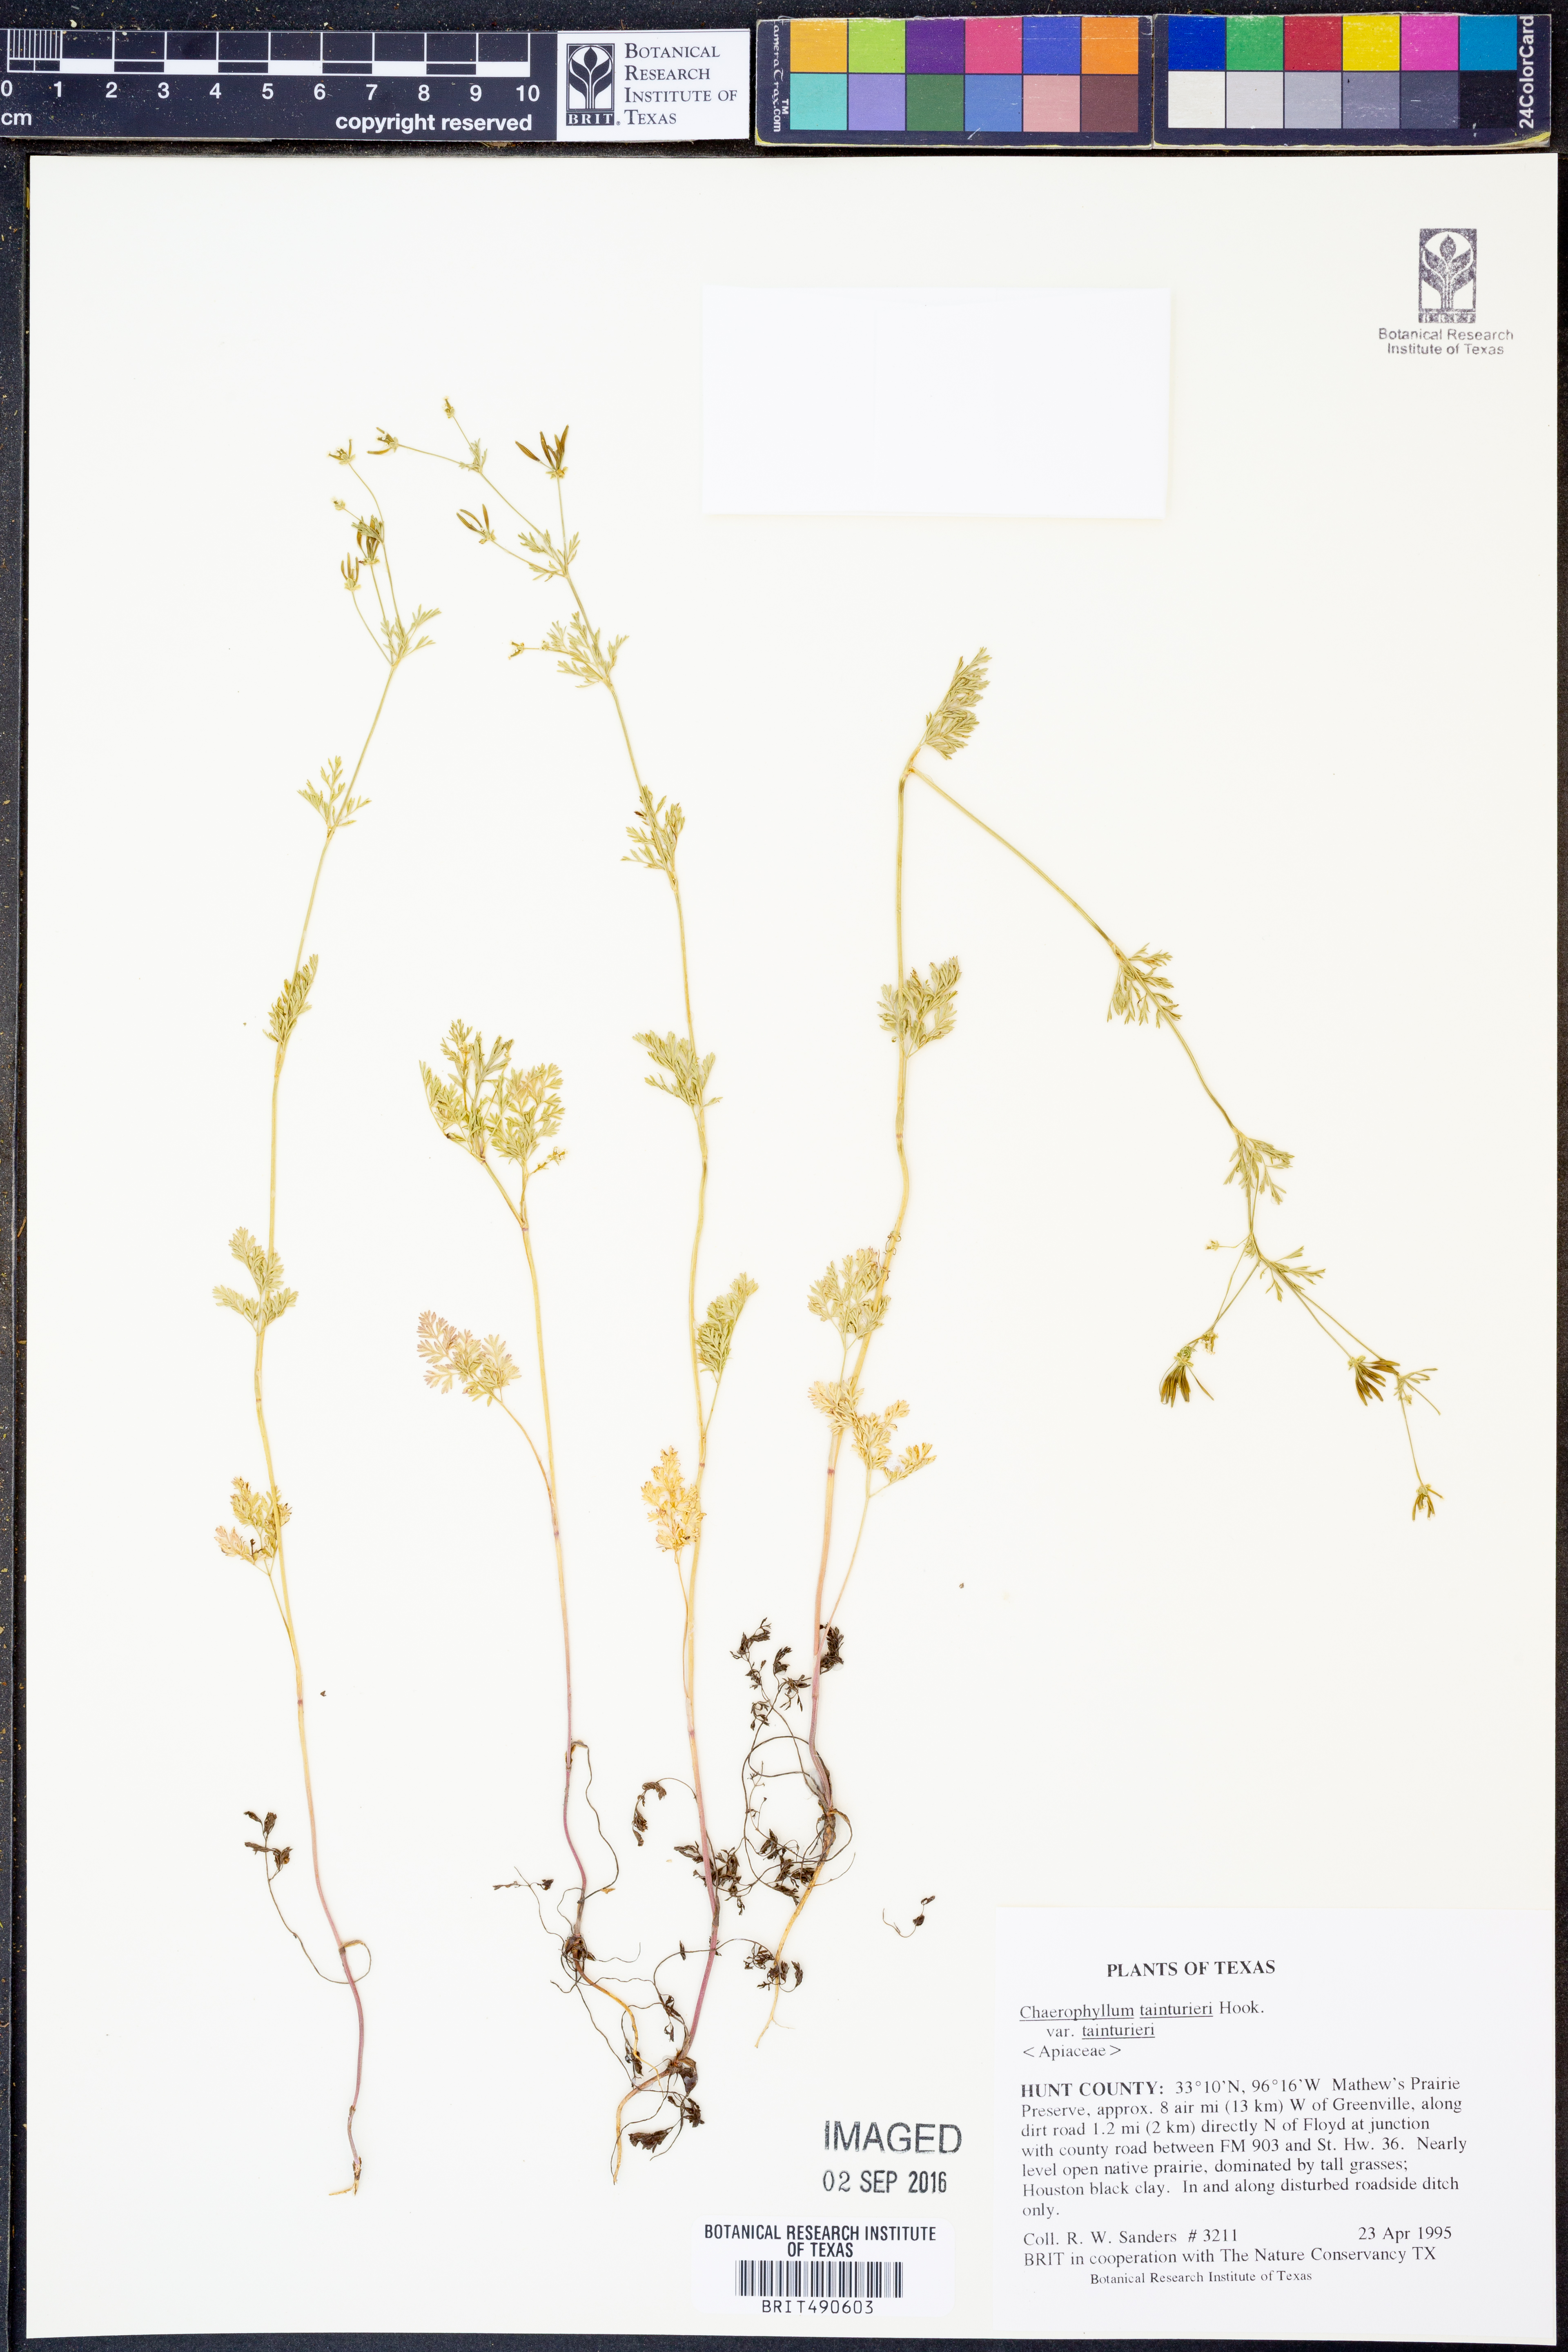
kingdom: Plantae
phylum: Tracheophyta
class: Magnoliopsida
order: Apiales
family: Apiaceae
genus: Chaerophyllum
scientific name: Chaerophyllum tainturieri
